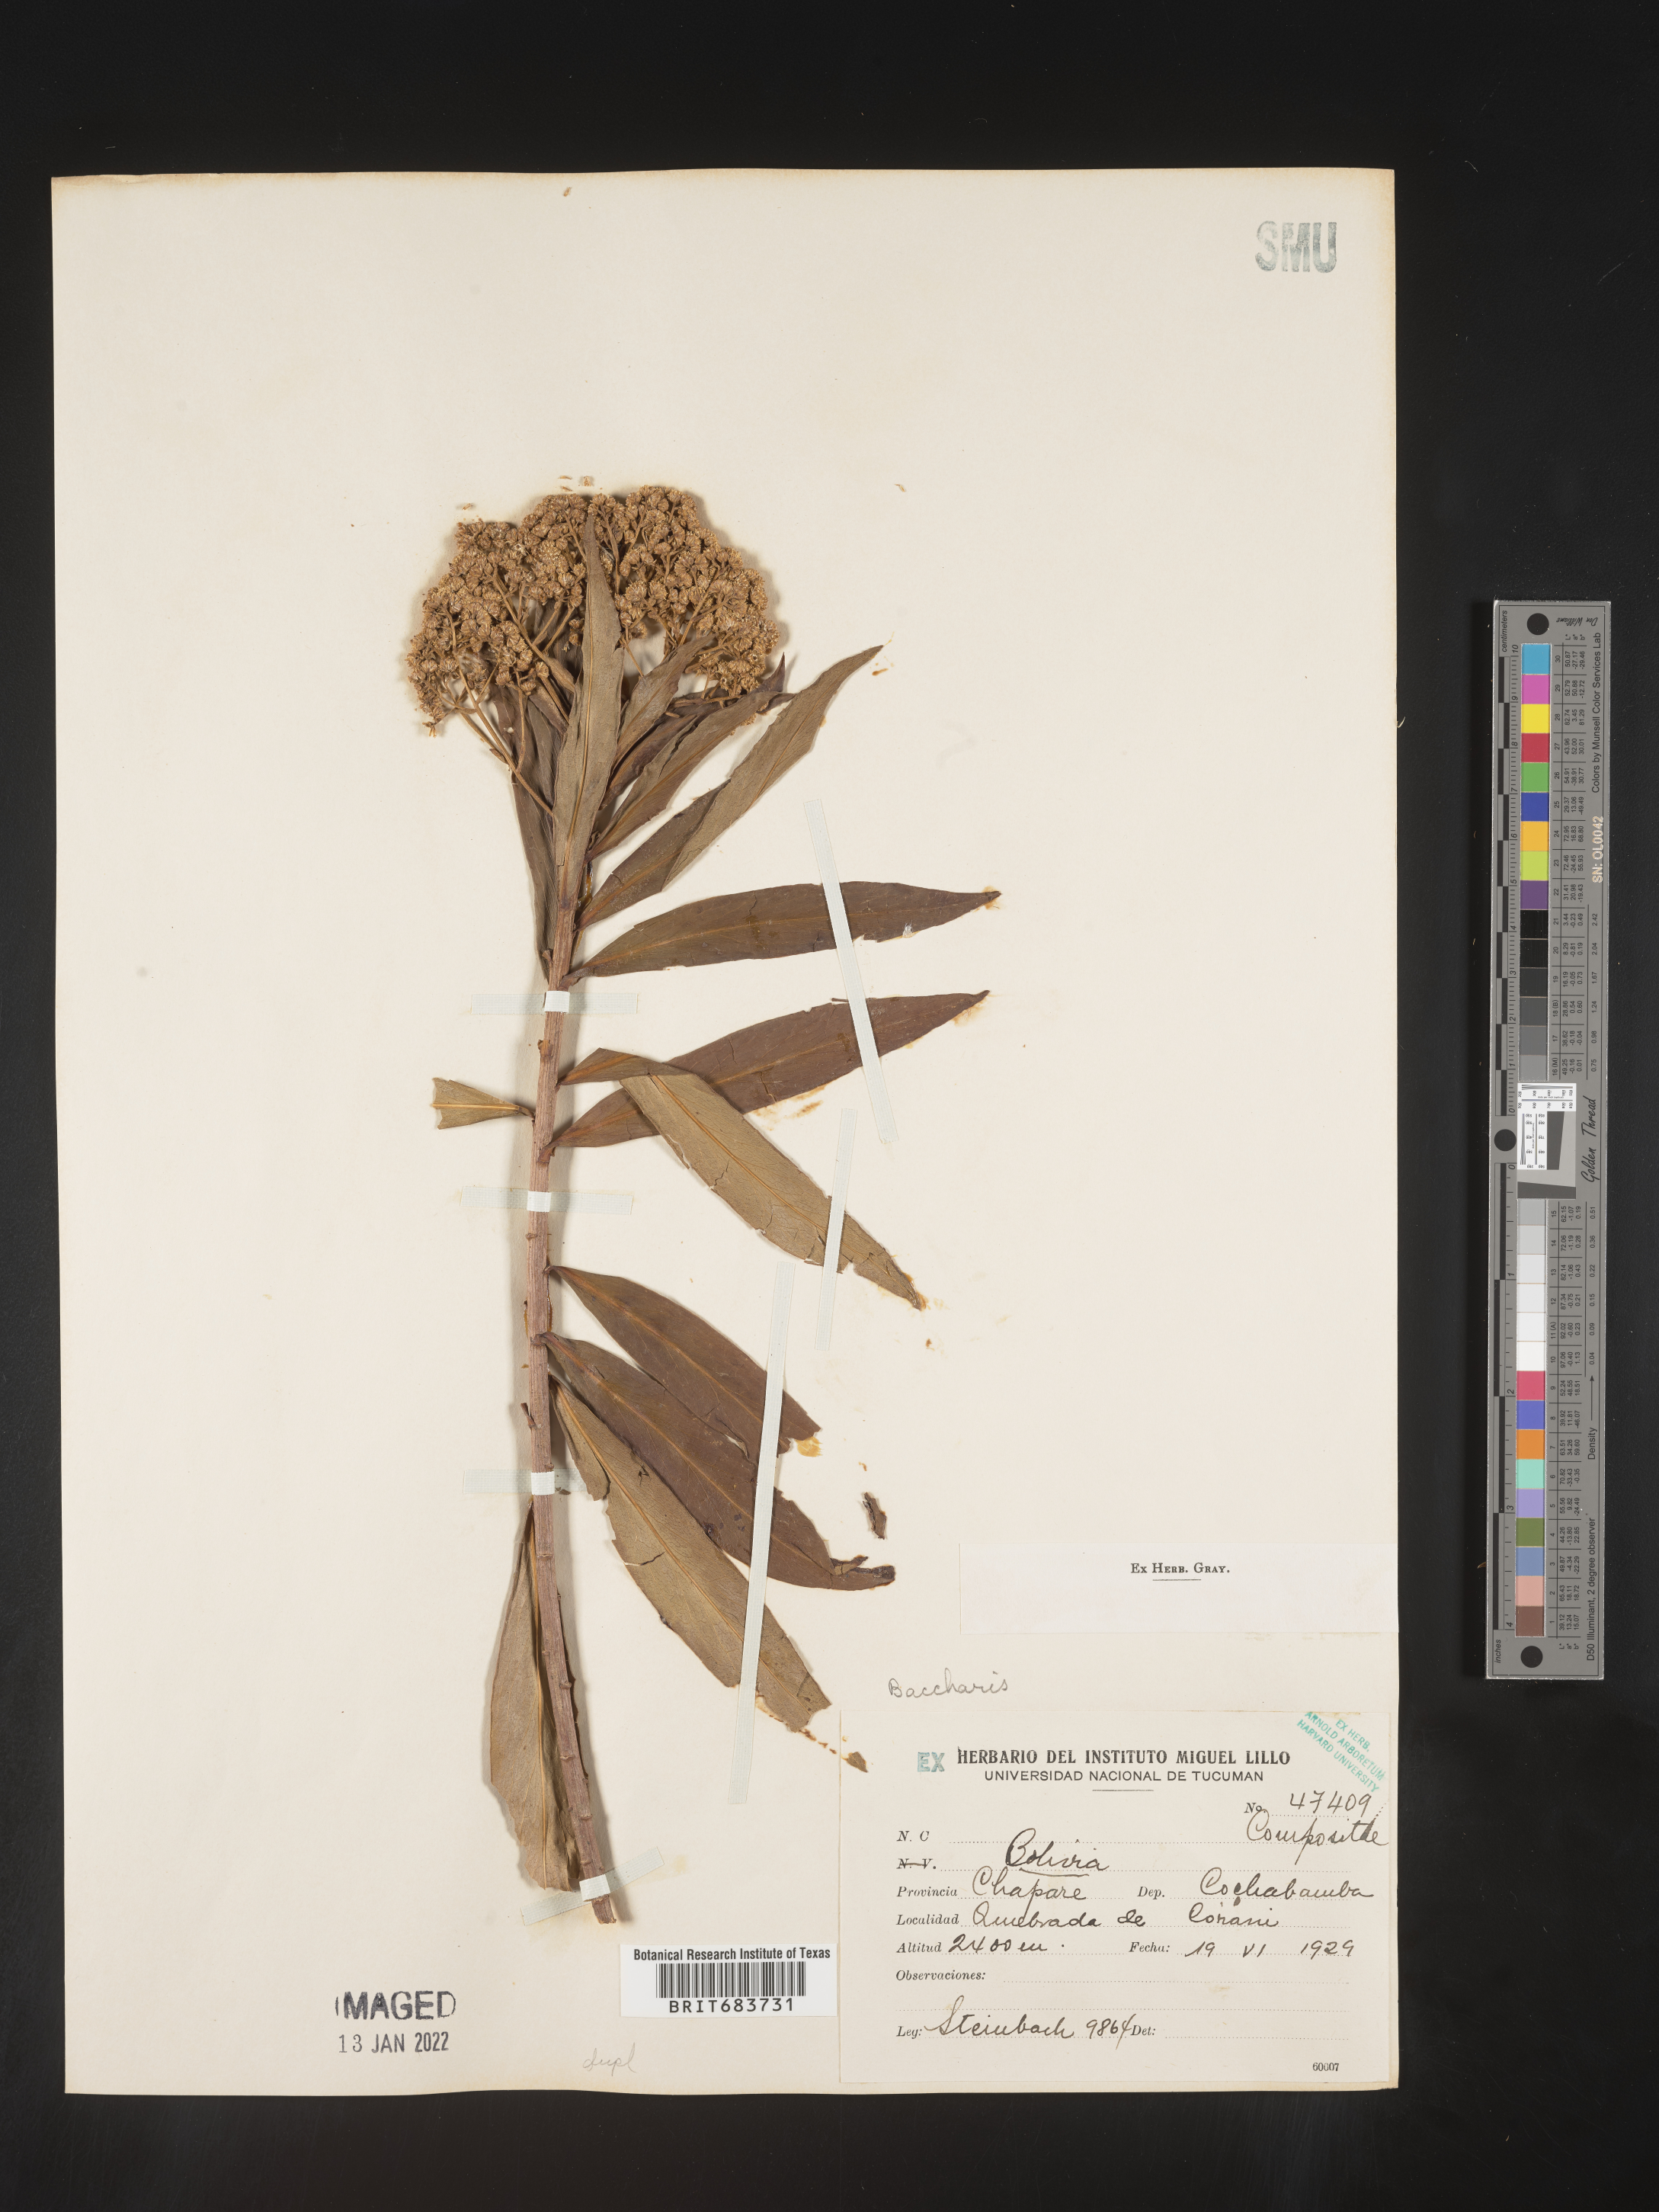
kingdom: Plantae
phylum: Tracheophyta
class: Magnoliopsida
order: Asterales
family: Asteraceae
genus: Baccharis
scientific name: Baccharis
